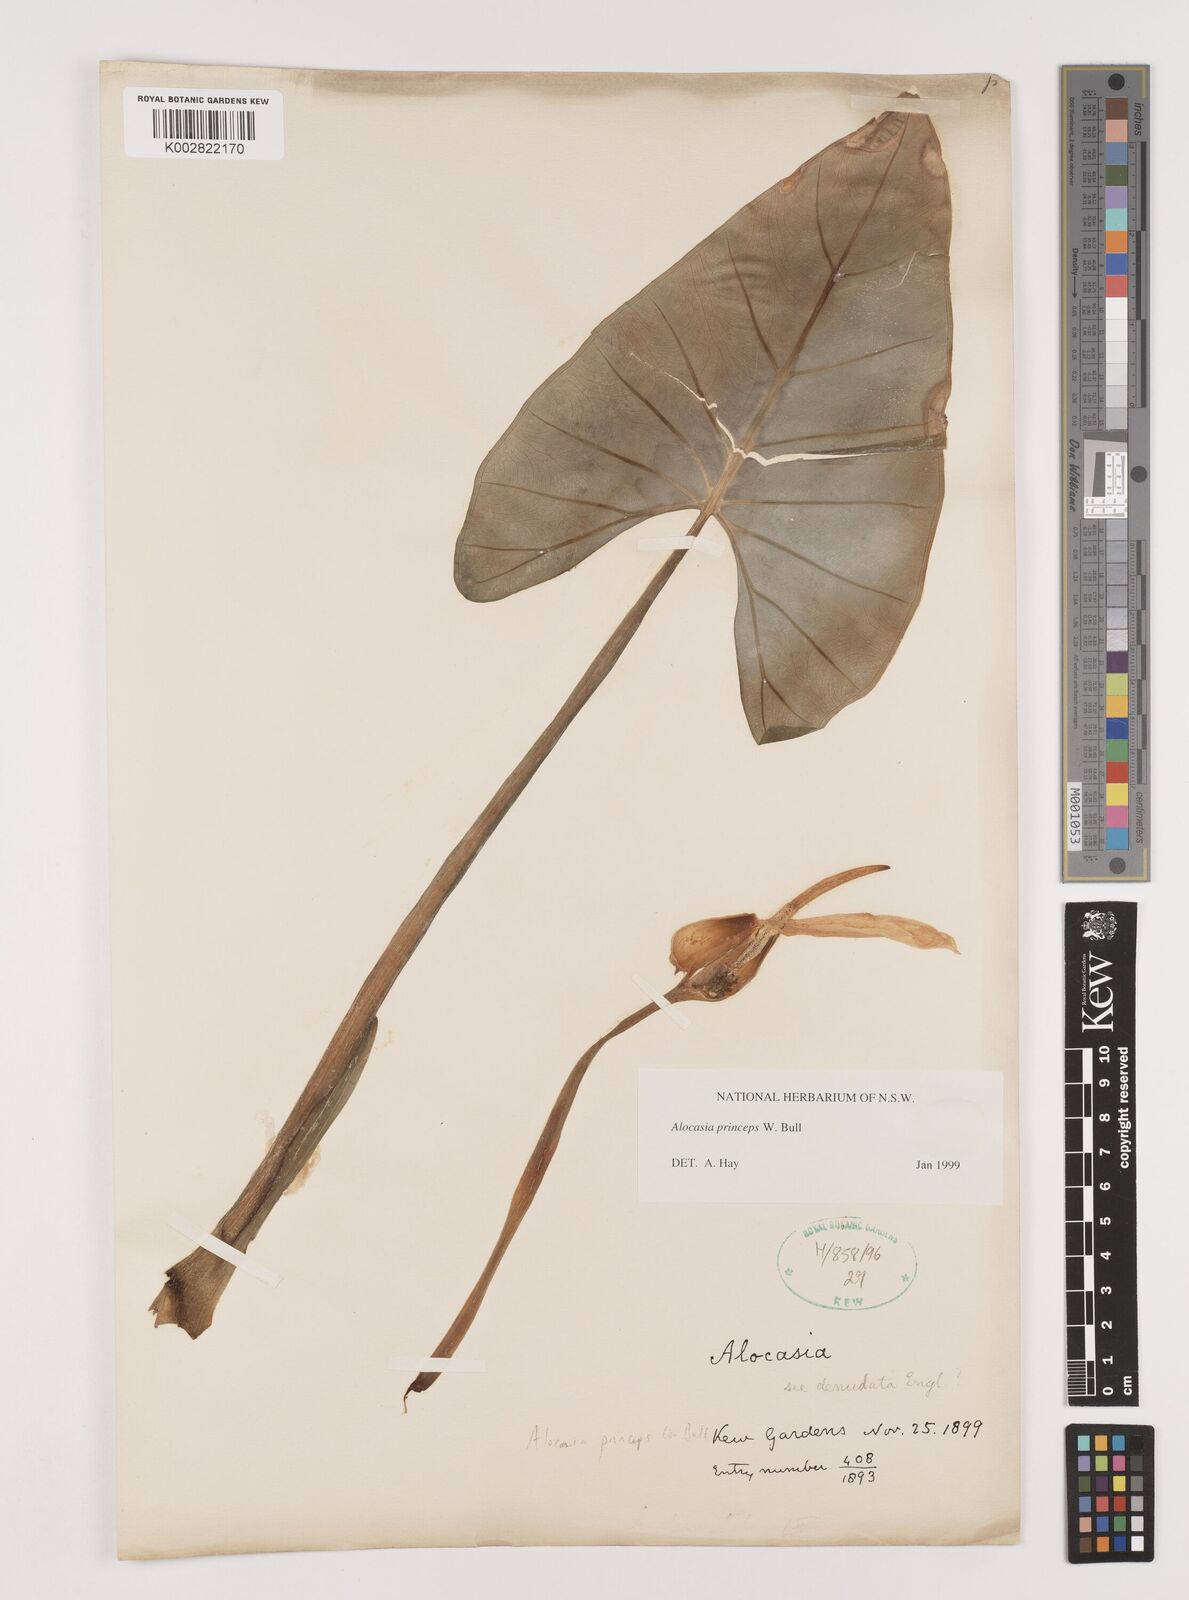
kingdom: Plantae
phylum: Tracheophyta
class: Liliopsida
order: Alismatales
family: Araceae
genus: Alocasia
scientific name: Alocasia princeps
